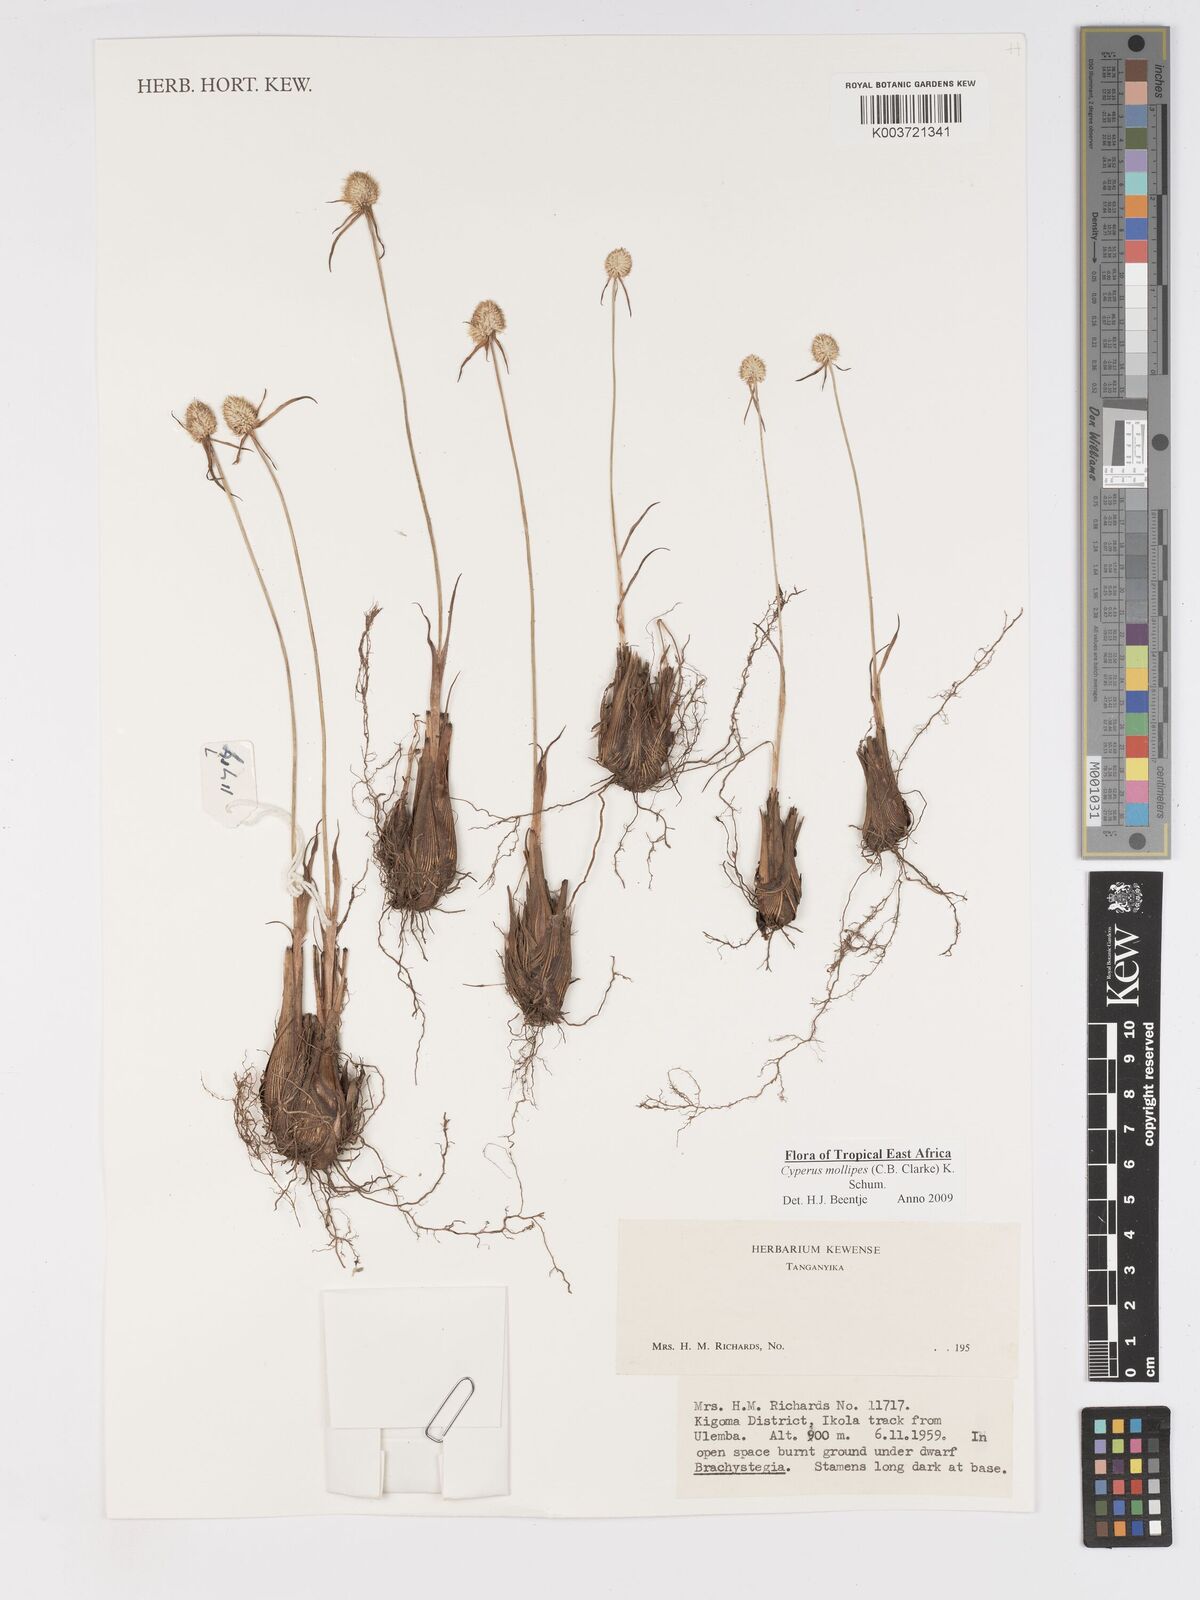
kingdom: Plantae
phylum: Tracheophyta
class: Liliopsida
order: Poales
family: Cyperaceae
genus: Cyperus
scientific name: Cyperus mollipes
